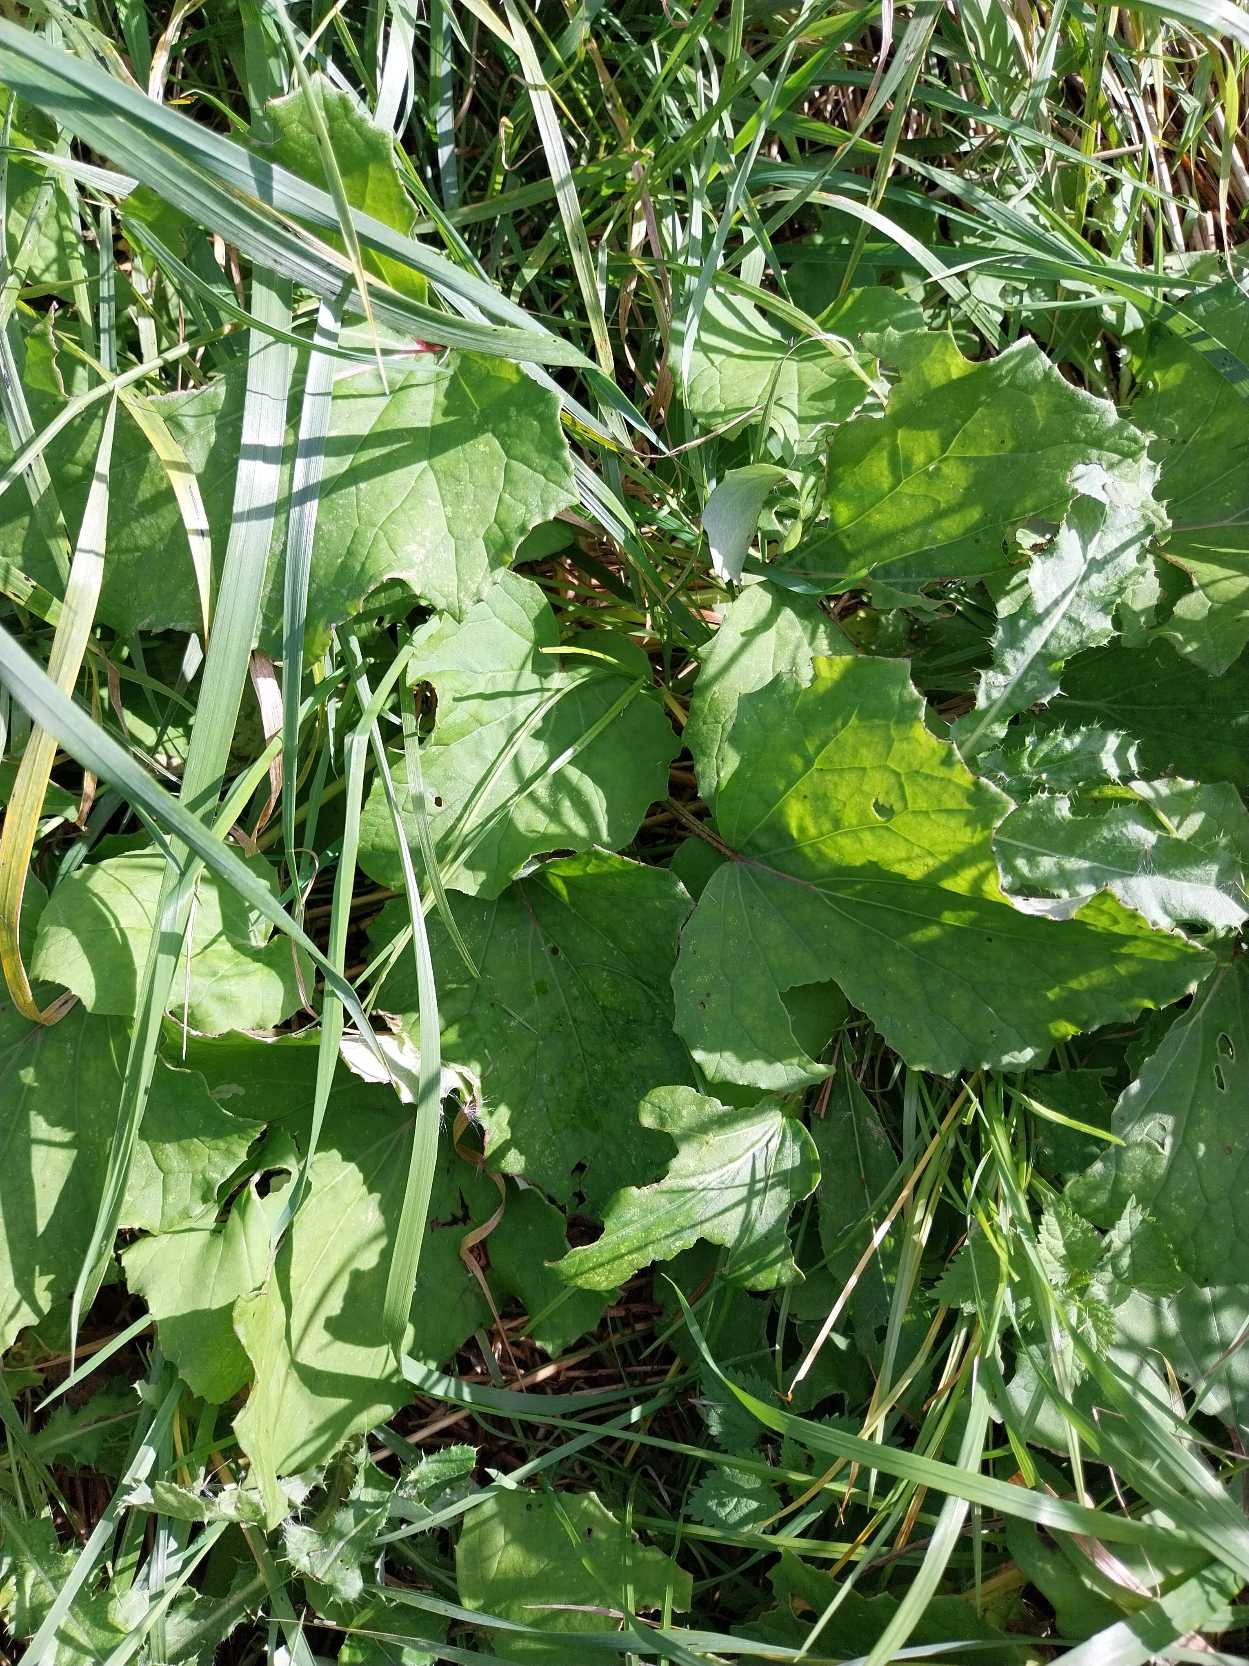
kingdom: Plantae
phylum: Tracheophyta
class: Magnoliopsida
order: Asterales
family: Asteraceae
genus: Tussilago
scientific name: Tussilago farfara
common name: Følfod
